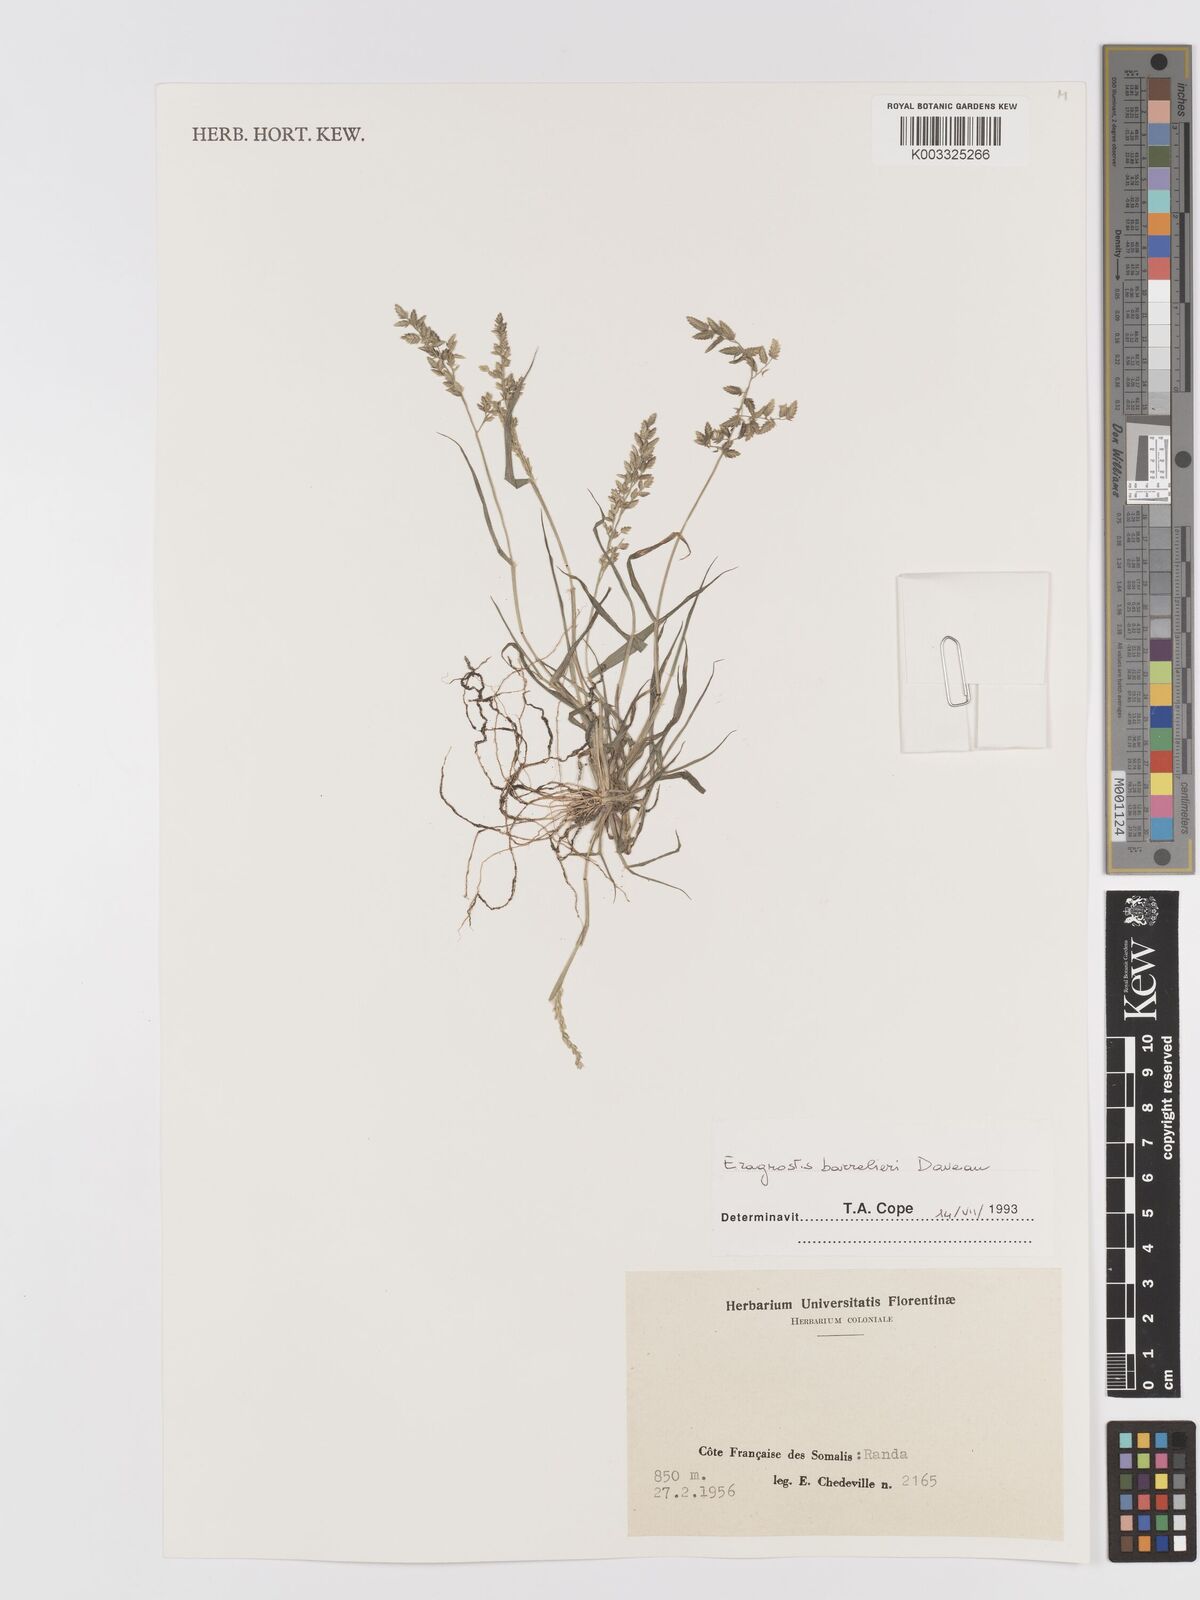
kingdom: Plantae
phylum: Tracheophyta
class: Liliopsida
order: Poales
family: Poaceae
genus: Eragrostis
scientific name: Eragrostis barrelieri
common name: Mediterranean lovegrass
